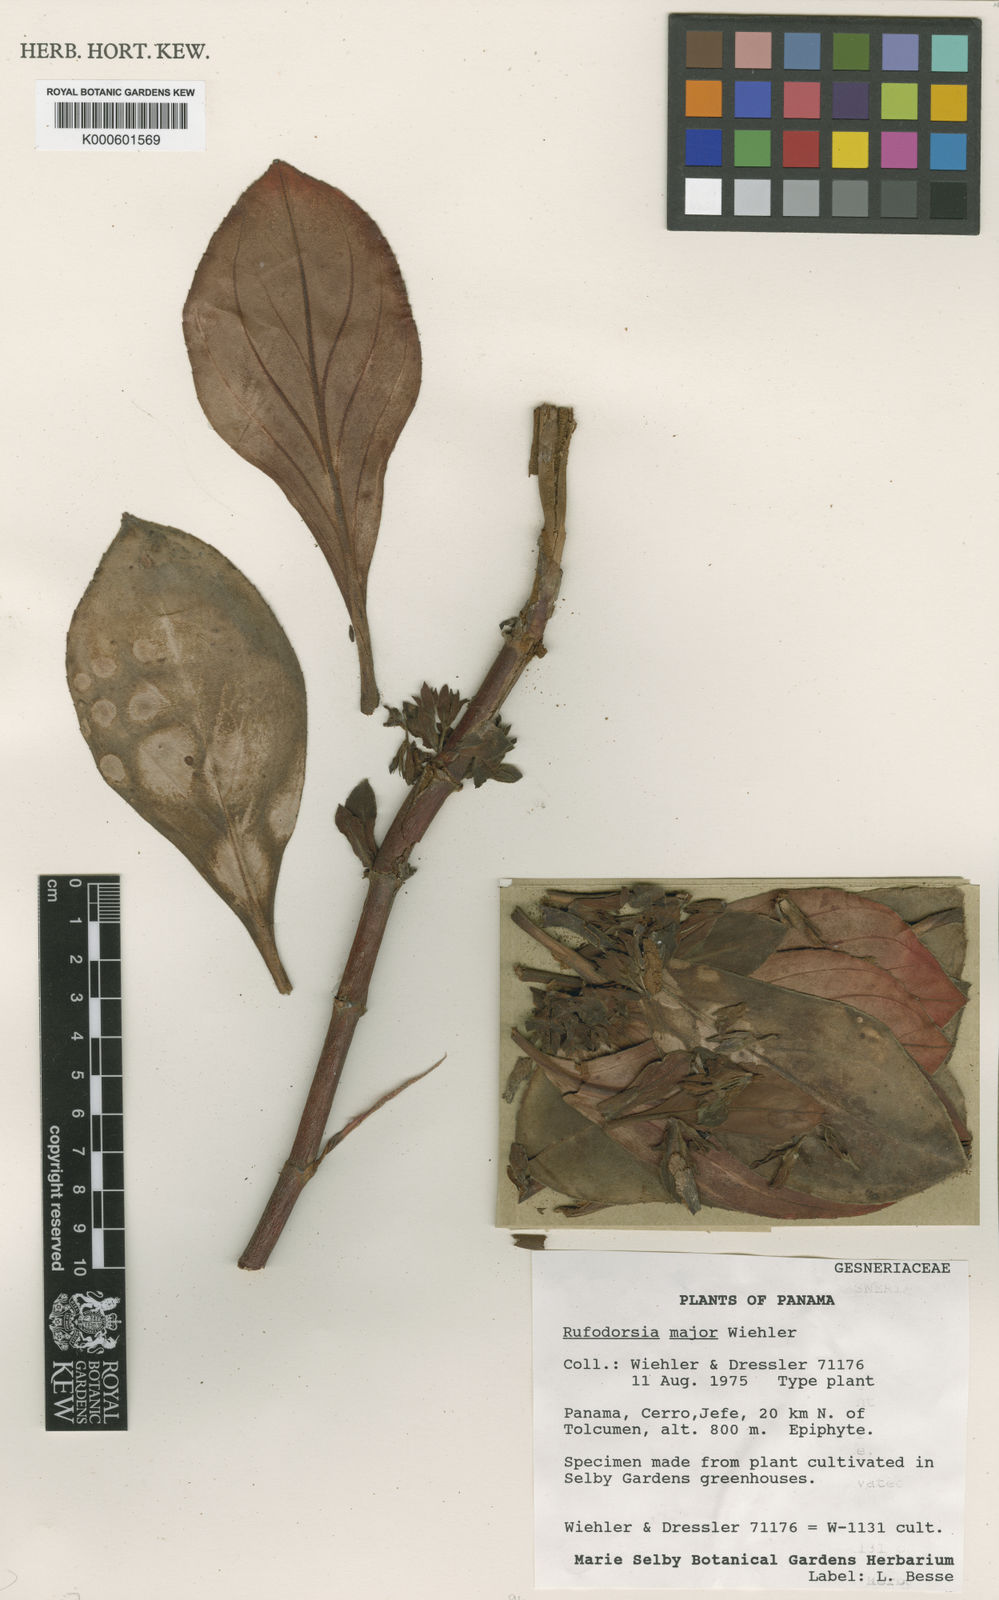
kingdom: Plantae
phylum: Tracheophyta
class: Magnoliopsida
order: Lamiales
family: Gesneriaceae
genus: Rufodorsia
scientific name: Rufodorsia major
